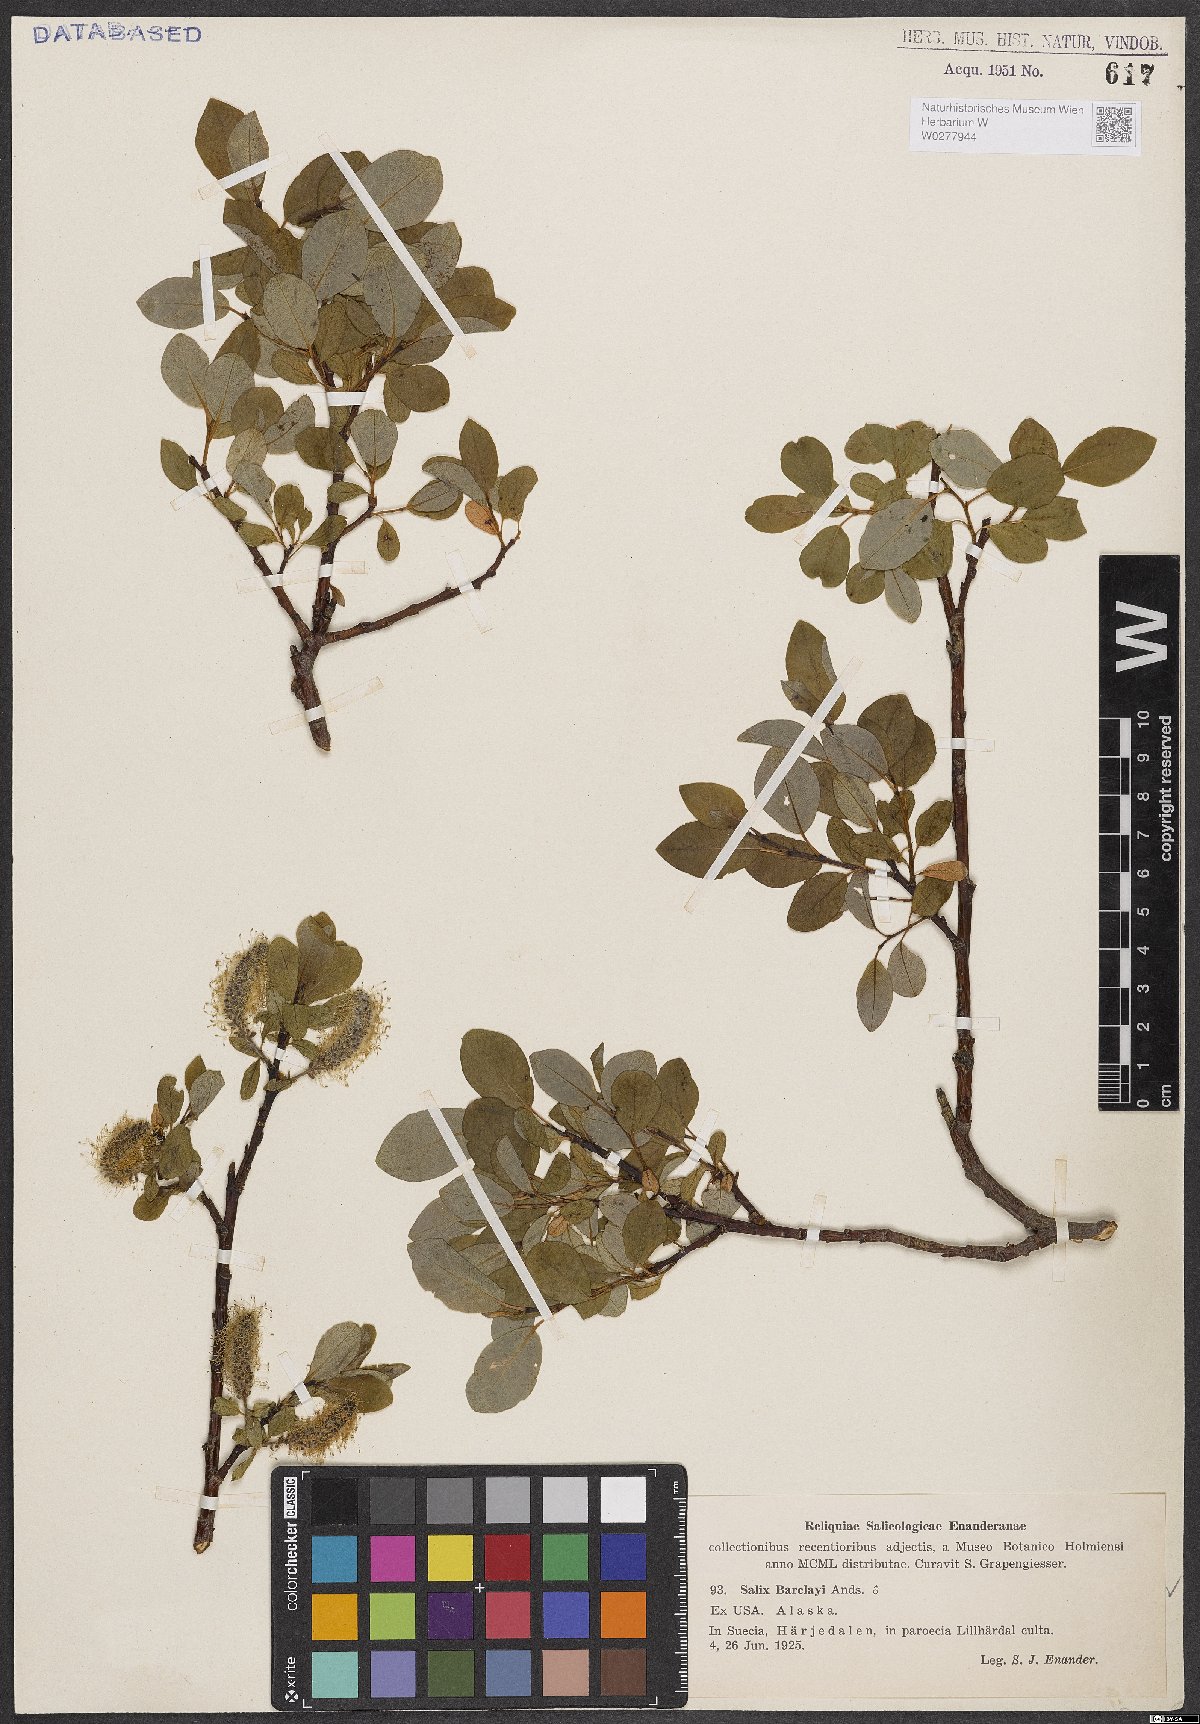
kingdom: Plantae
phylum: Tracheophyta
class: Magnoliopsida
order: Malpighiales
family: Salicaceae
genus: Salix
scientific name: Salix barclayi
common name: Mountain willow
